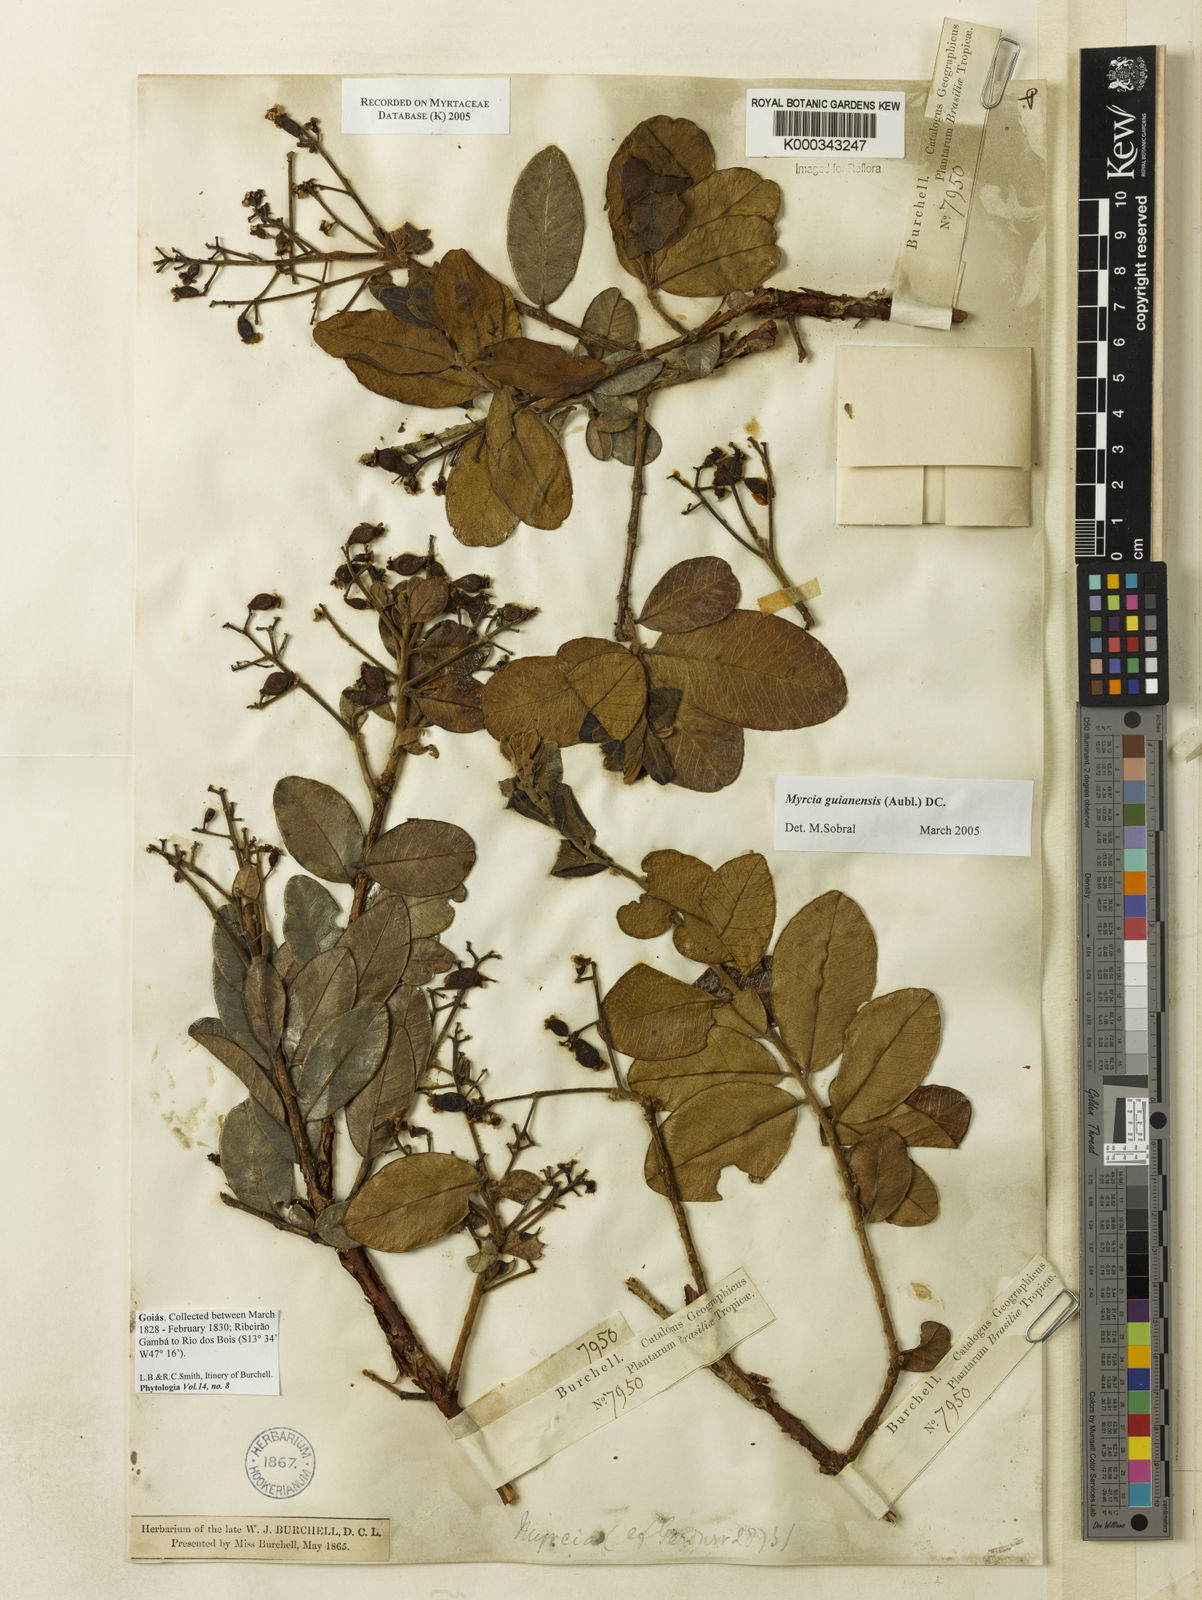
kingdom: Plantae
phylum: Tracheophyta
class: Magnoliopsida
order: Myrtales
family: Myrtaceae
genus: Myrcia
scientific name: Myrcia guianensis
